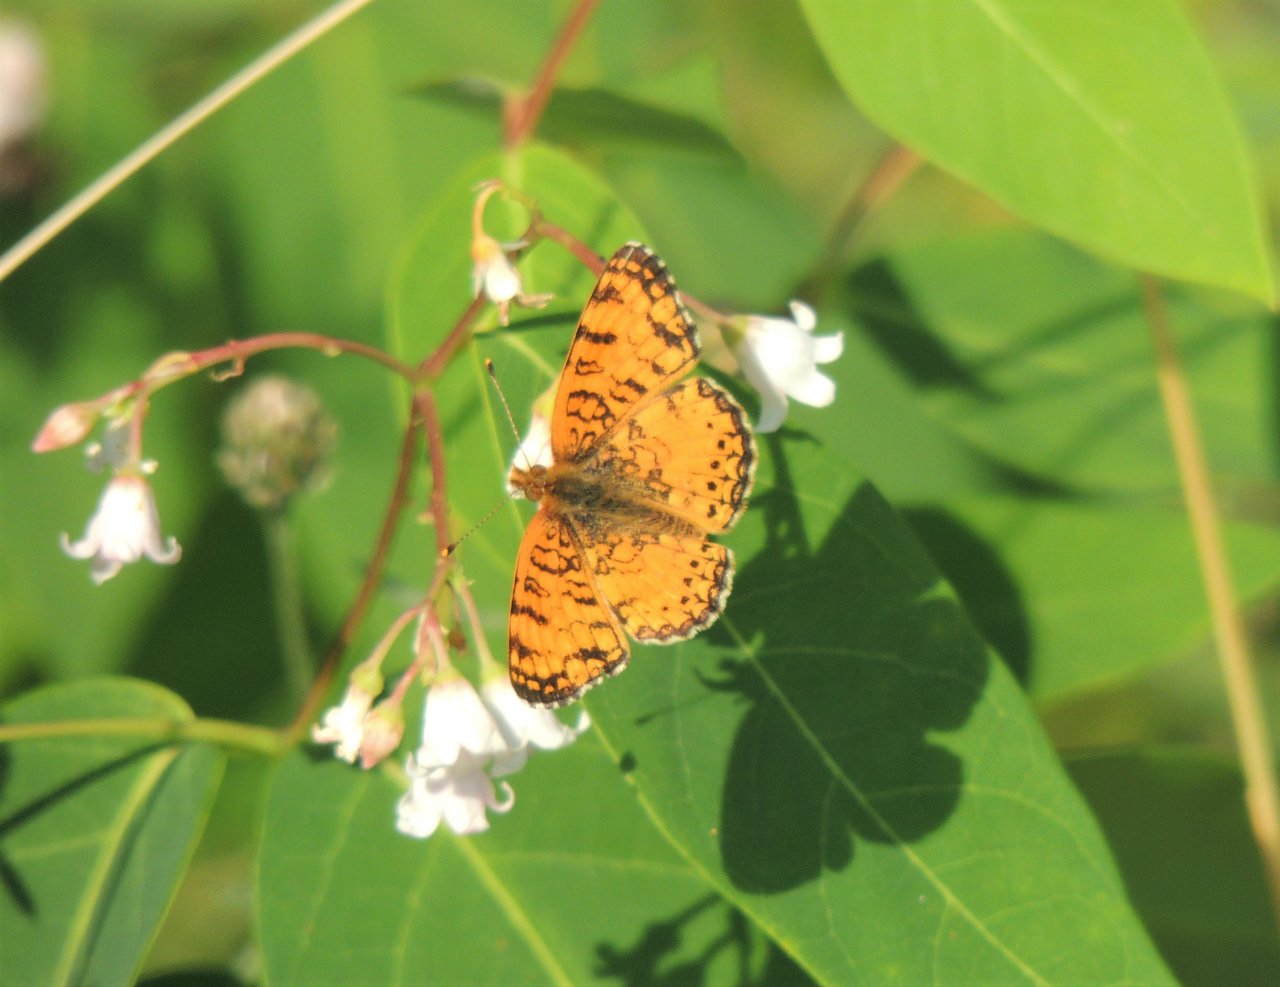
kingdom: Animalia
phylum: Arthropoda
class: Insecta
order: Lepidoptera
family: Nymphalidae
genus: Eresia
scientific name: Eresia aveyrona
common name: Mylitta Crescent
